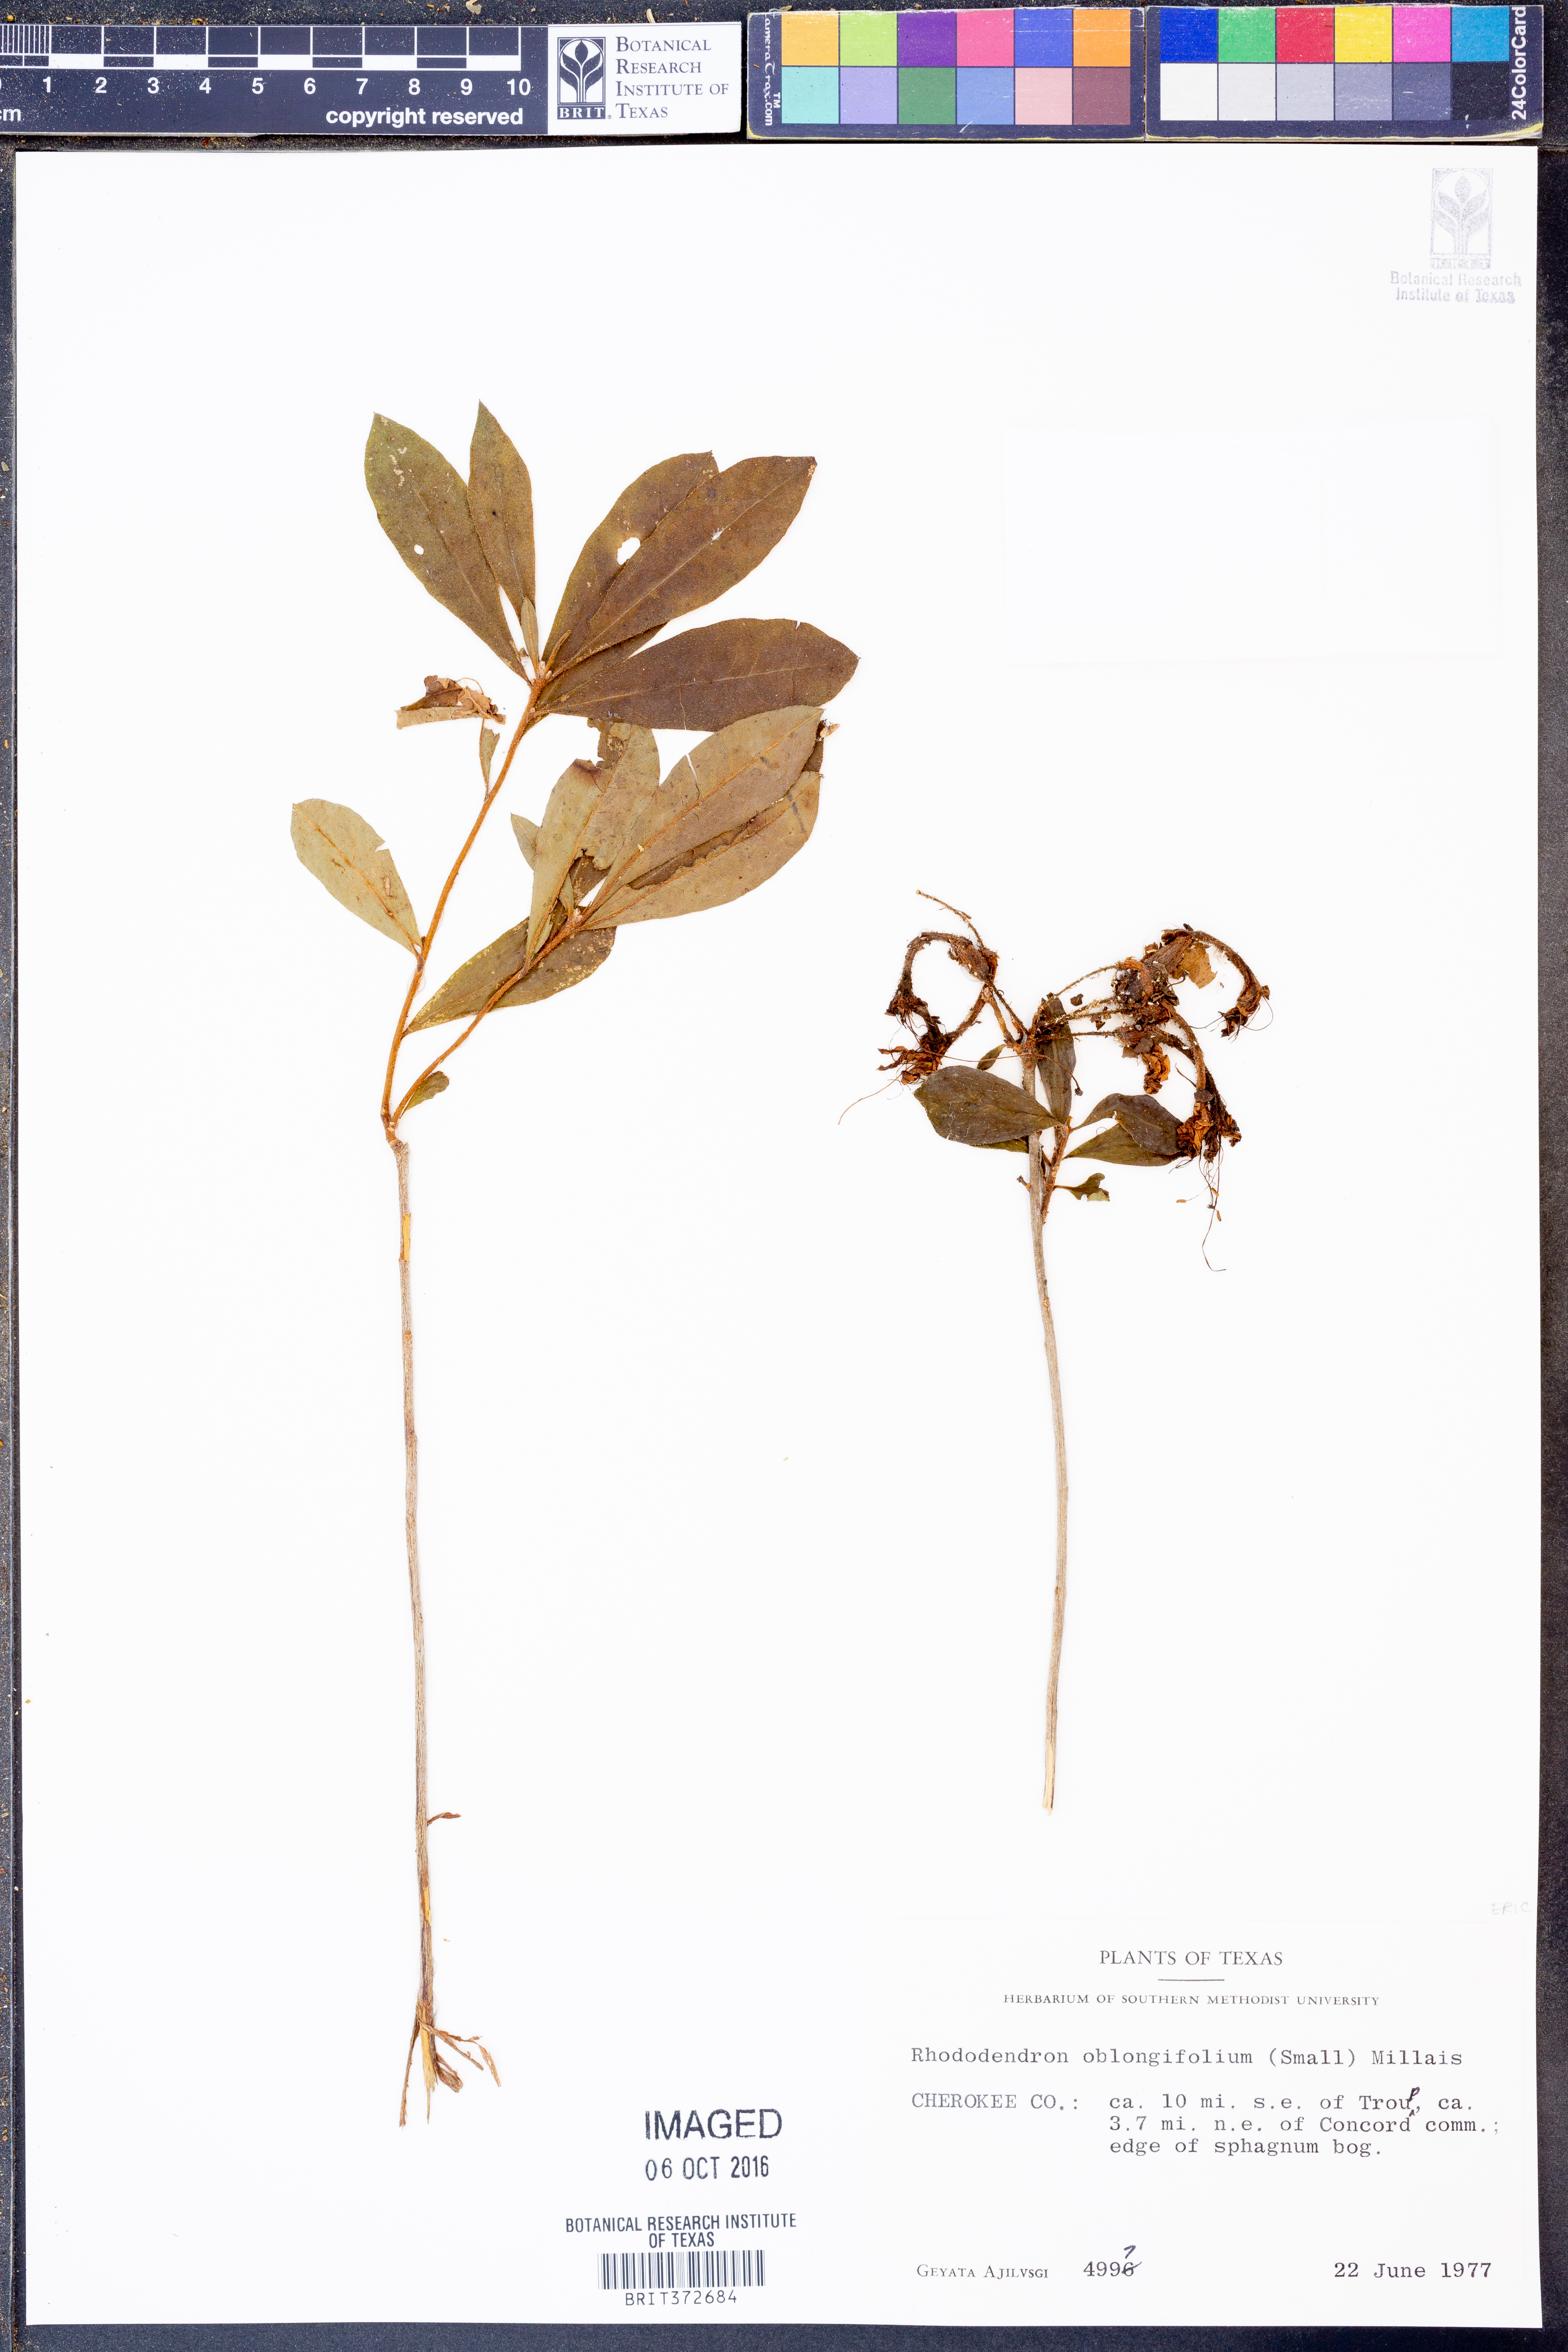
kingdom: Plantae
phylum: Tracheophyta
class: Magnoliopsida
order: Ericales
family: Ericaceae
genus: Rhododendron
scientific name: Rhododendron viscosum
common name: Clammy azalea
